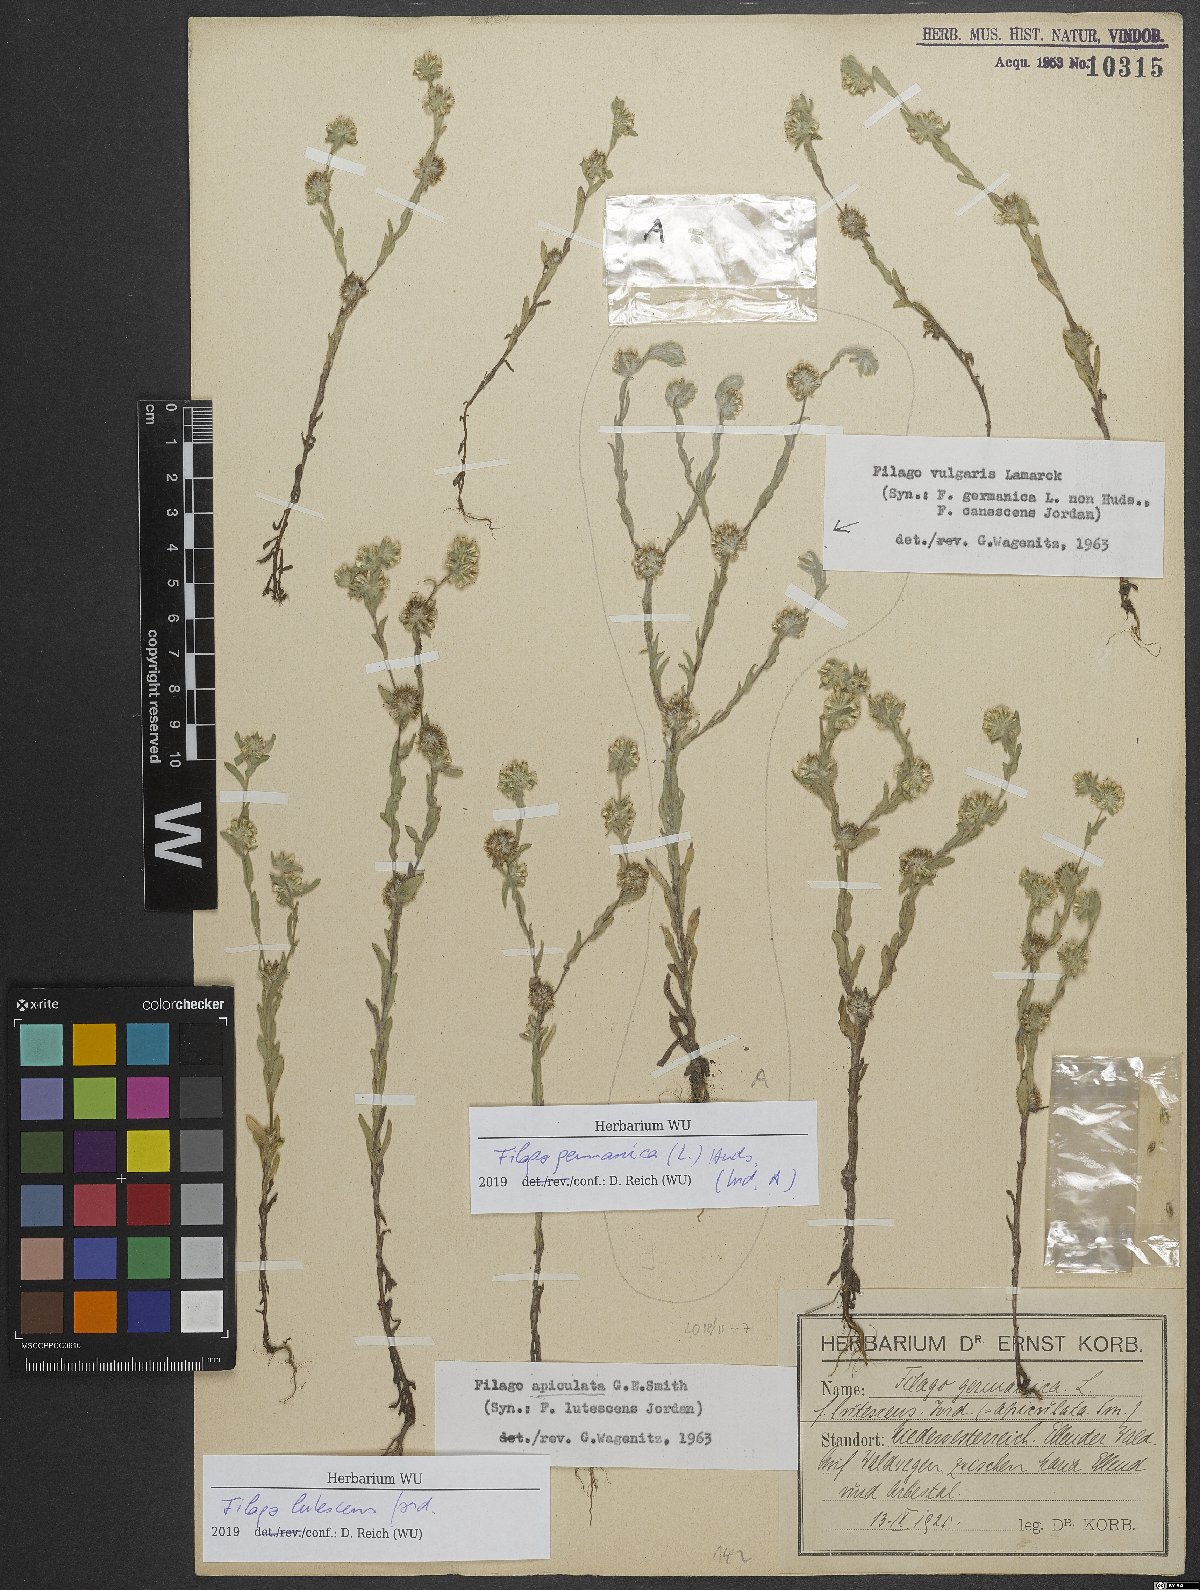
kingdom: Plantae
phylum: Tracheophyta
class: Magnoliopsida
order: Asterales
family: Asteraceae
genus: Filago
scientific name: Filago lutescens
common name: Red-tipped cudweed
